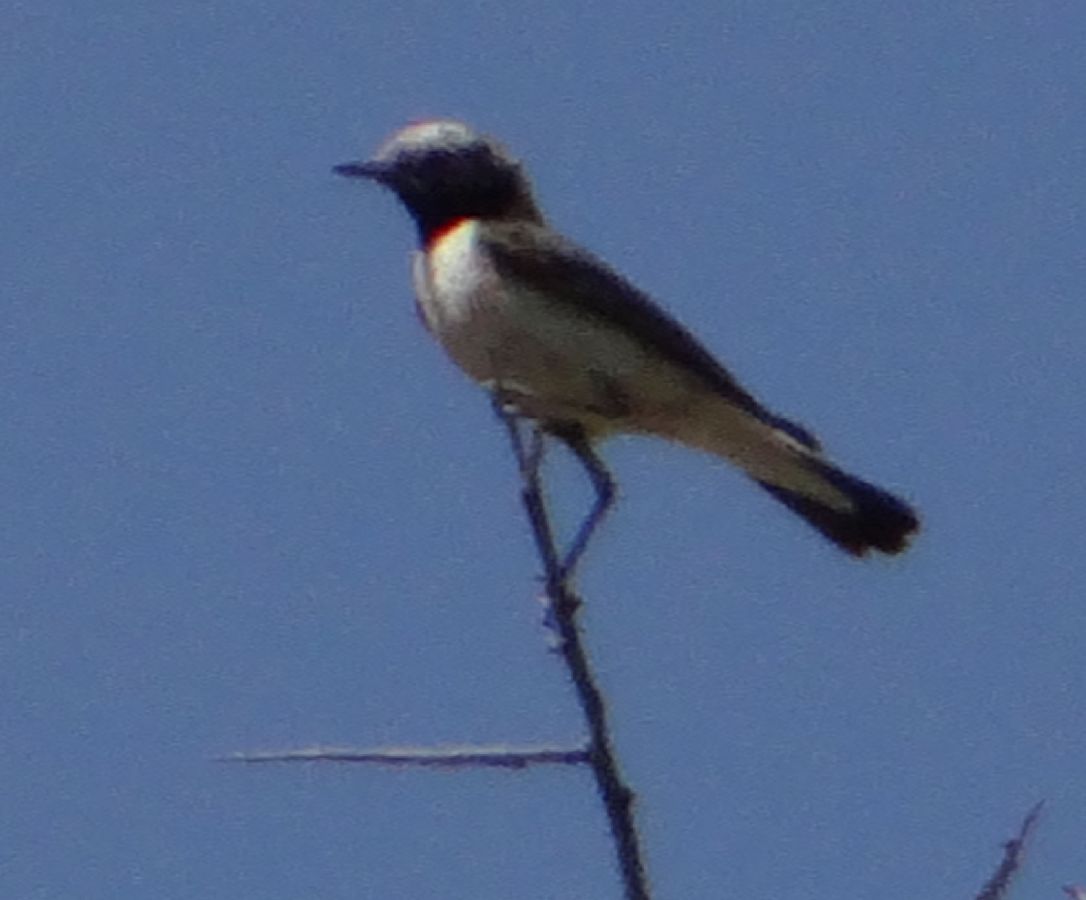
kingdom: Animalia
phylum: Chordata
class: Aves
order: Passeriformes
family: Muscicapidae
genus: Oenanthe
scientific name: Oenanthe hispanica
